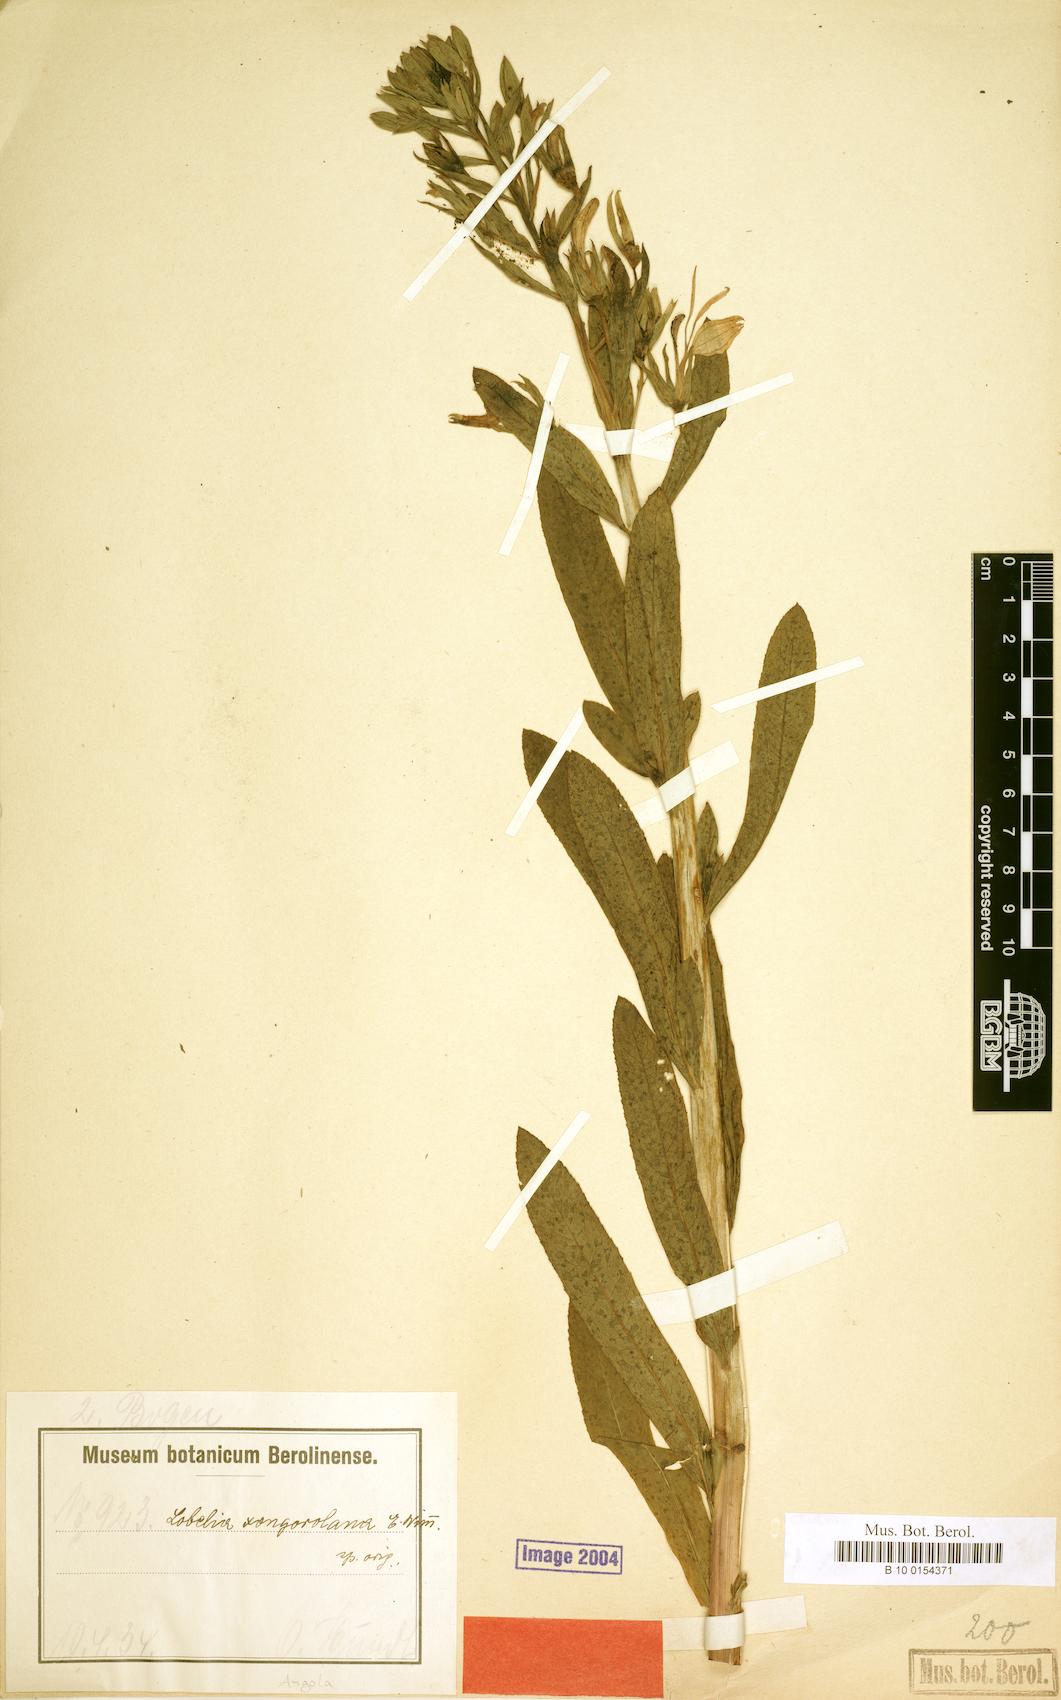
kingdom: Plantae
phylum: Tracheophyta
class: Magnoliopsida
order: Asterales
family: Campanulaceae
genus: Lobelia
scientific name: Lobelia xongorolana
